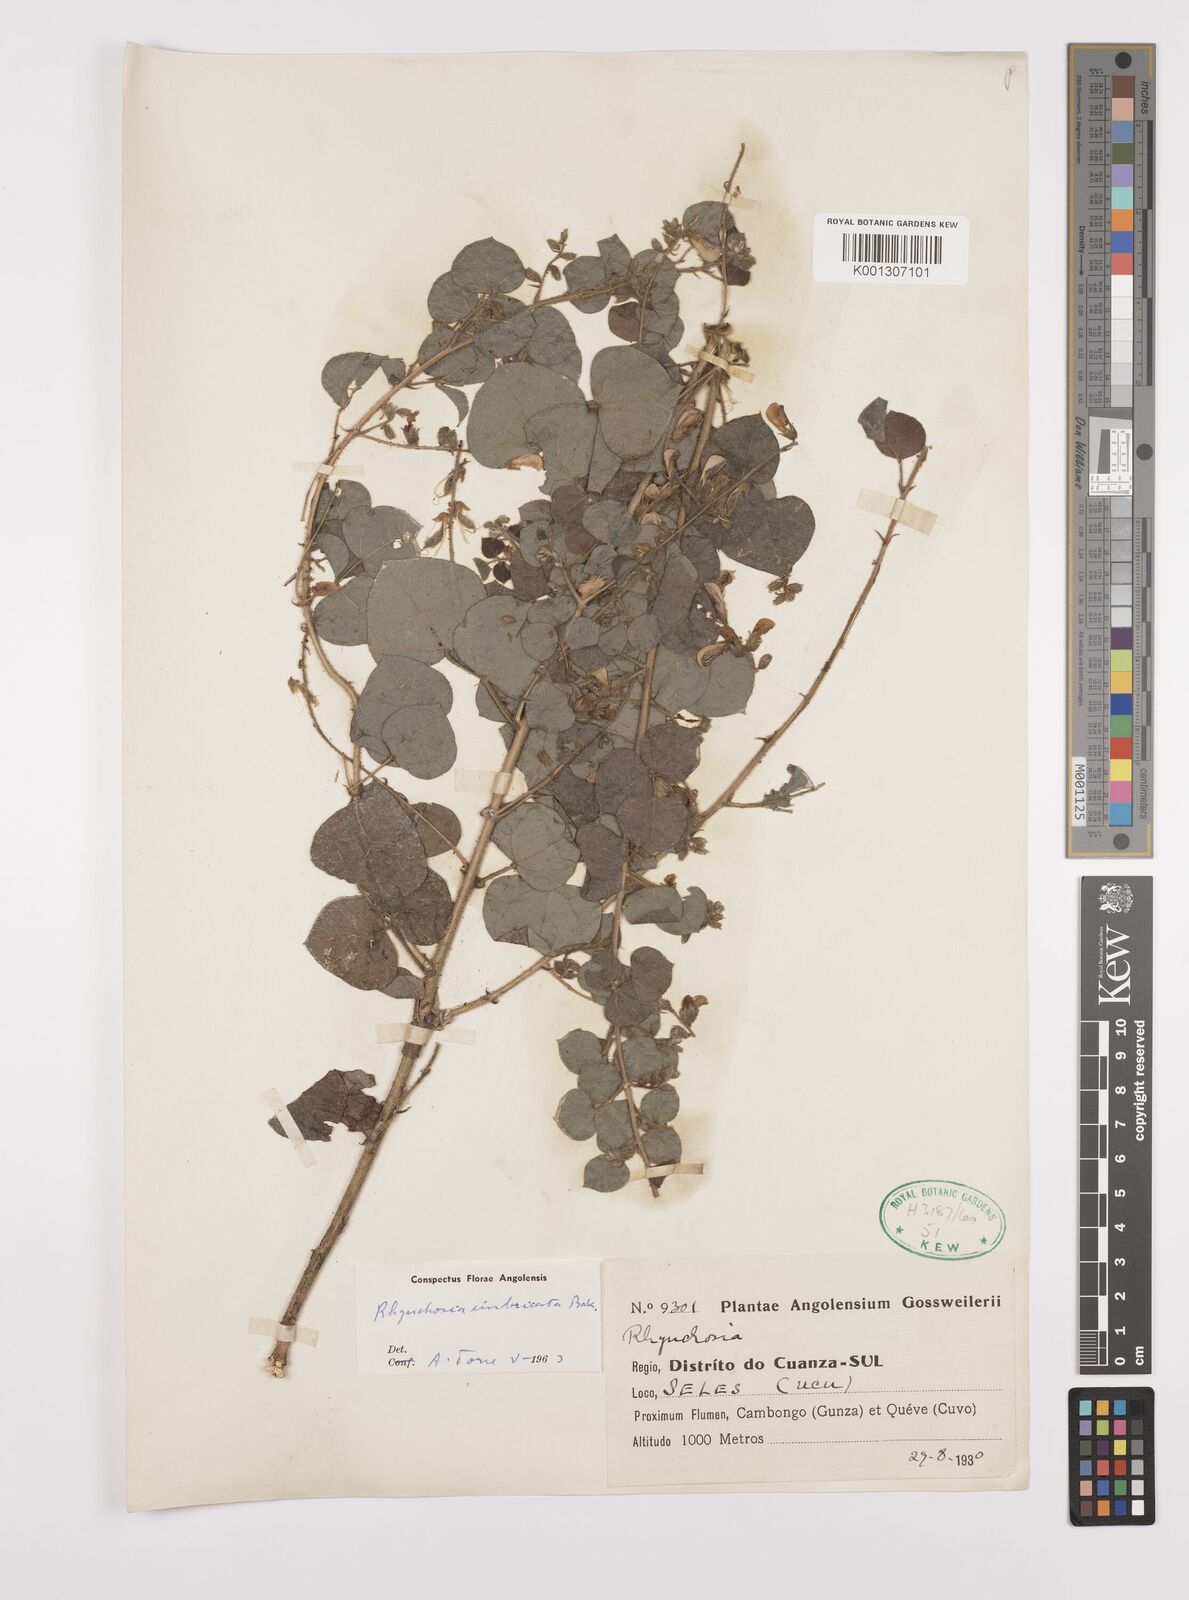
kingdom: Plantae
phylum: Tracheophyta
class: Magnoliopsida
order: Fabales
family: Fabaceae
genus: Rhynchosia
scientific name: Rhynchosia nyasica
